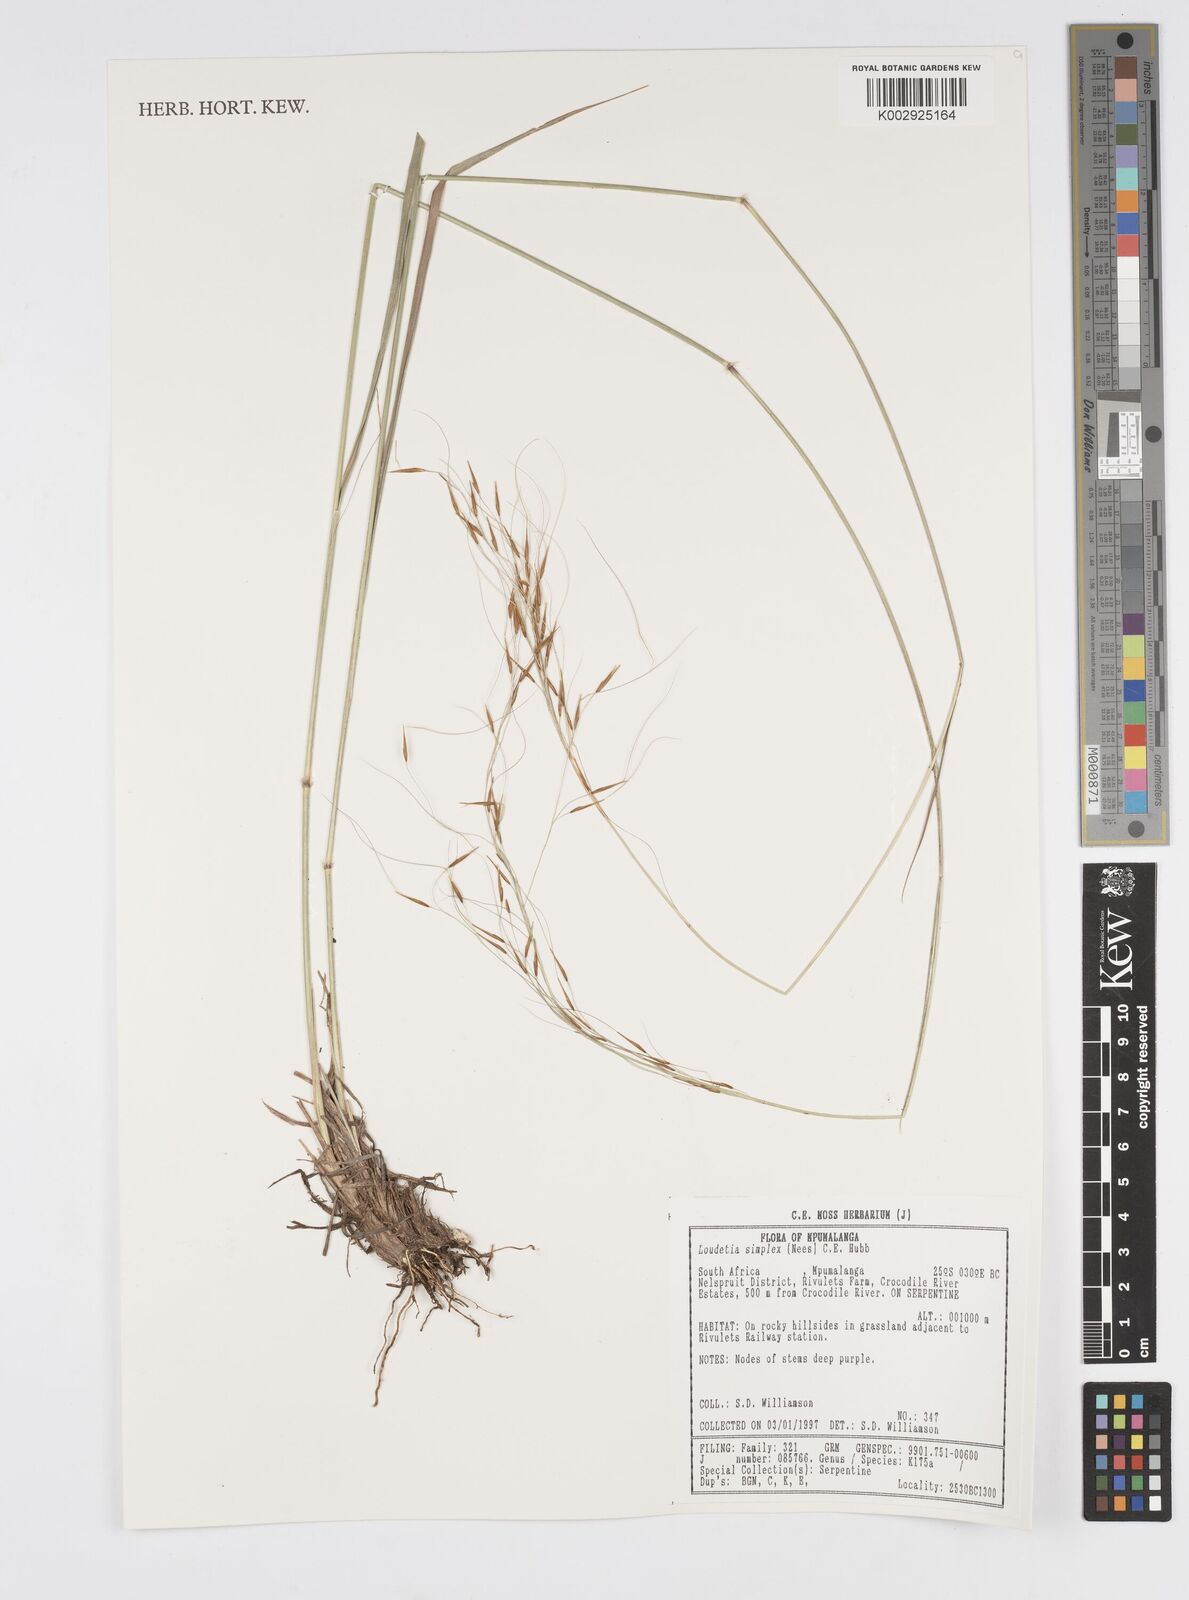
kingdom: Plantae
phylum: Tracheophyta
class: Liliopsida
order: Poales
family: Poaceae
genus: Loudetia
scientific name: Loudetia simplex
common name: Common russet grass
